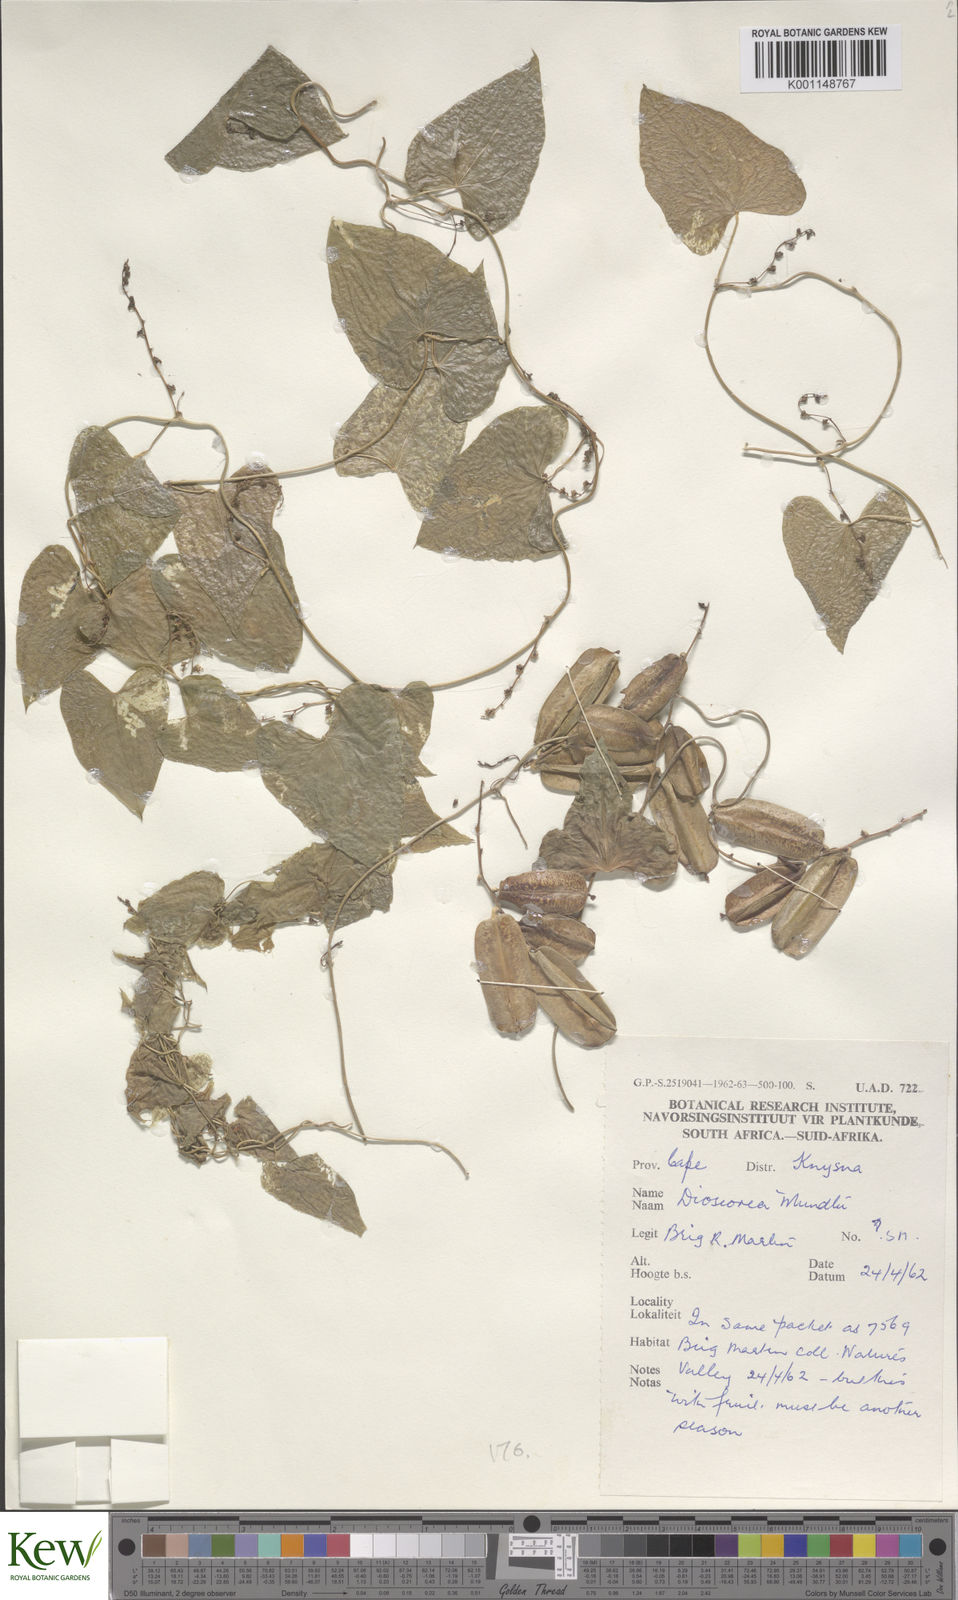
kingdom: Plantae
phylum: Tracheophyta
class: Liliopsida
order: Dioscoreales
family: Dioscoreaceae
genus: Dioscorea
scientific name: Dioscorea mundii
